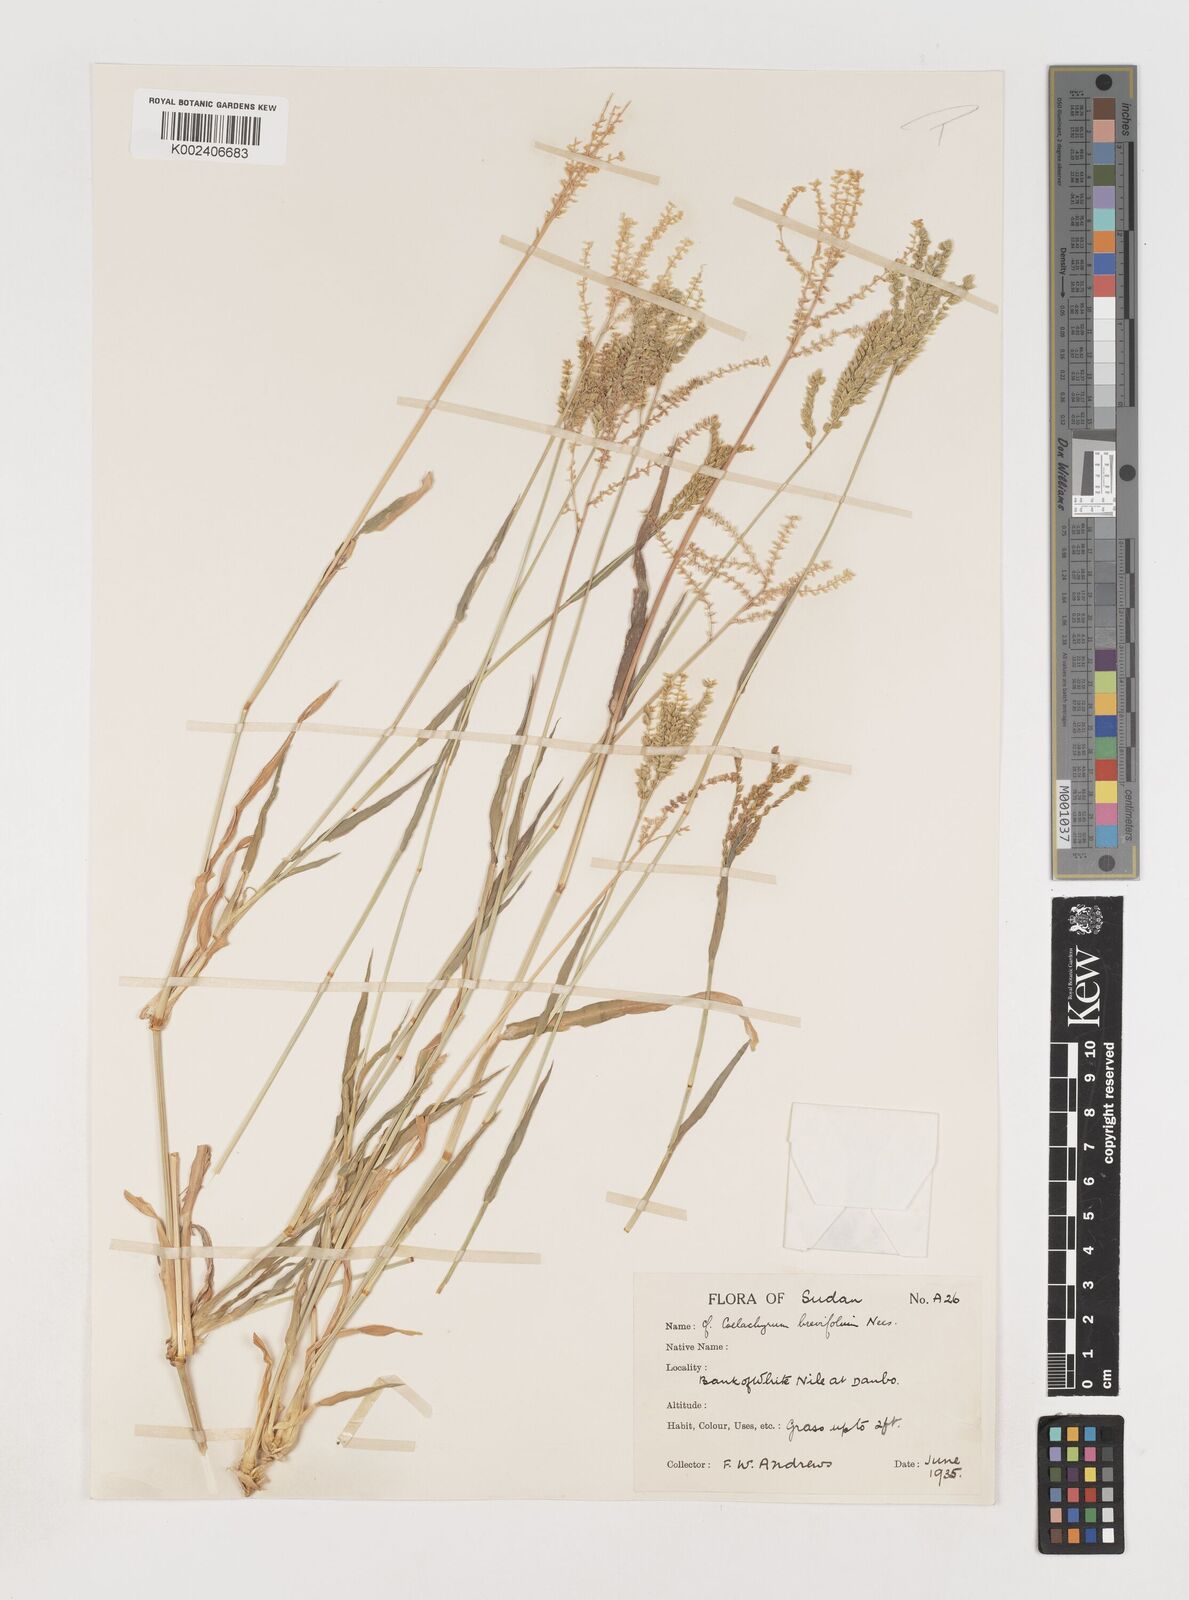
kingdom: Plantae
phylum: Tracheophyta
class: Liliopsida
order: Poales
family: Poaceae
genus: Coelachyrum
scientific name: Coelachyrum brevifolium
